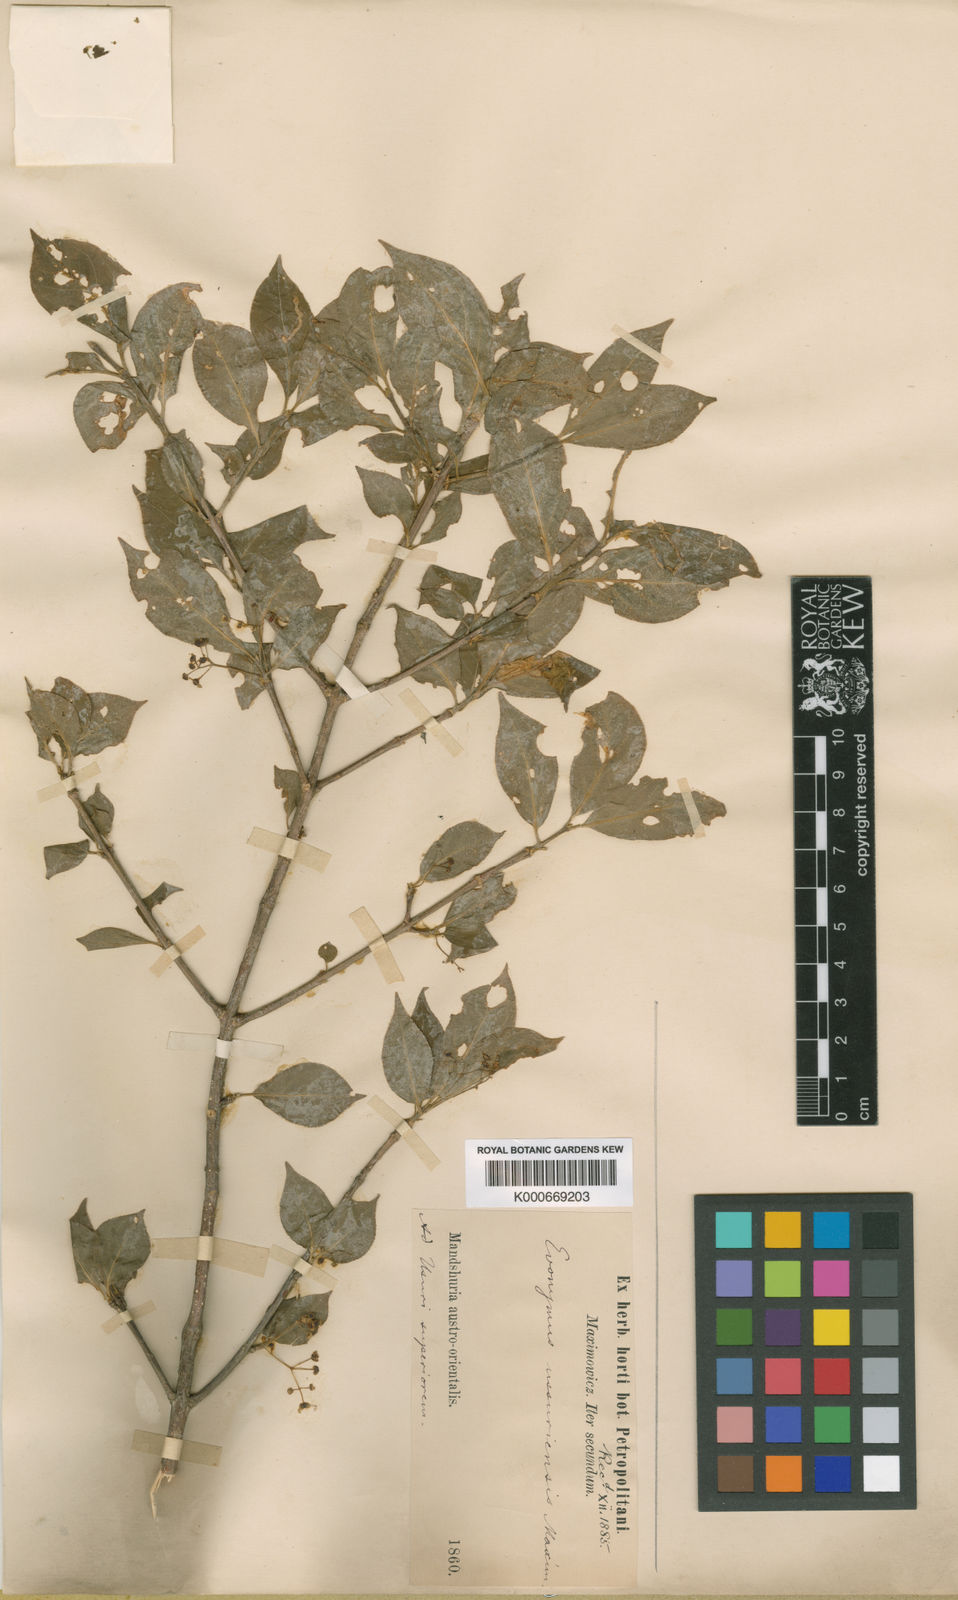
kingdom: Plantae
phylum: Tracheophyta
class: Magnoliopsida
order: Celastrales
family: Celastraceae
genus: Euonymus
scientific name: Euonymus macropterus
